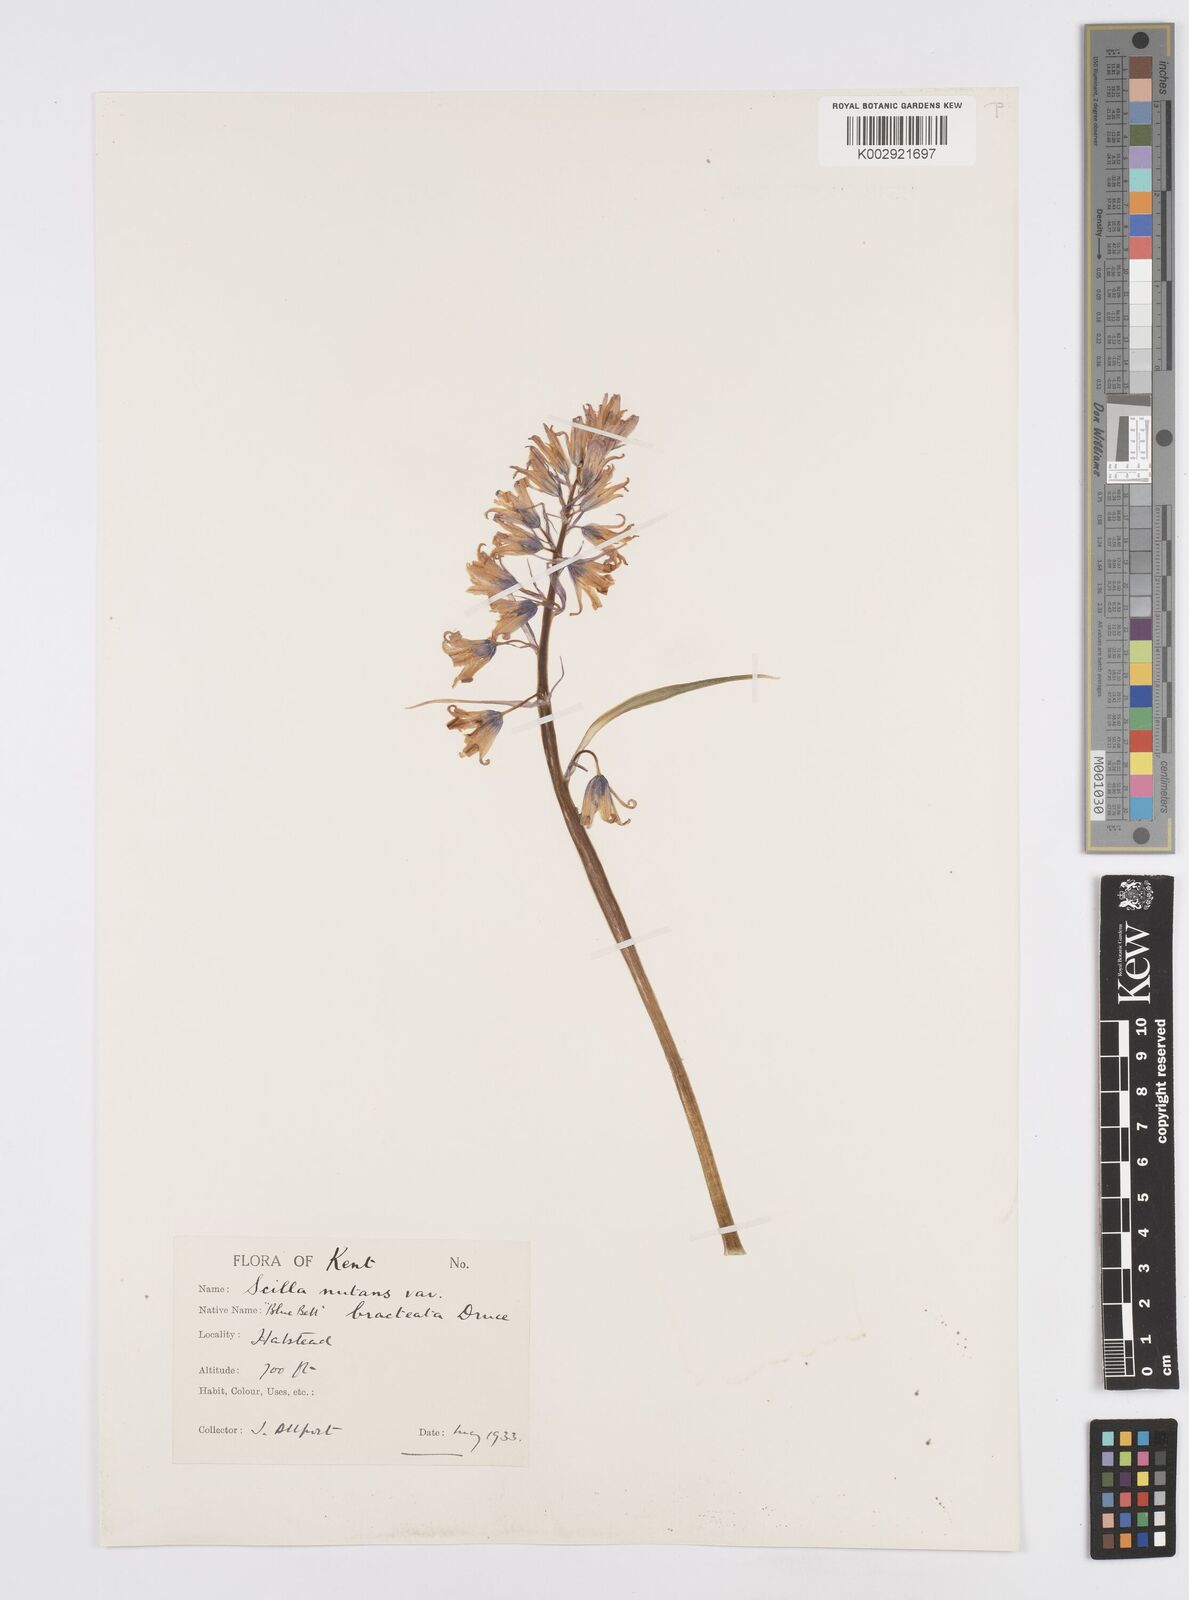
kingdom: Plantae
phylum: Tracheophyta
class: Liliopsida
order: Asparagales
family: Asparagaceae
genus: Hyacinthoides
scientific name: Hyacinthoides
